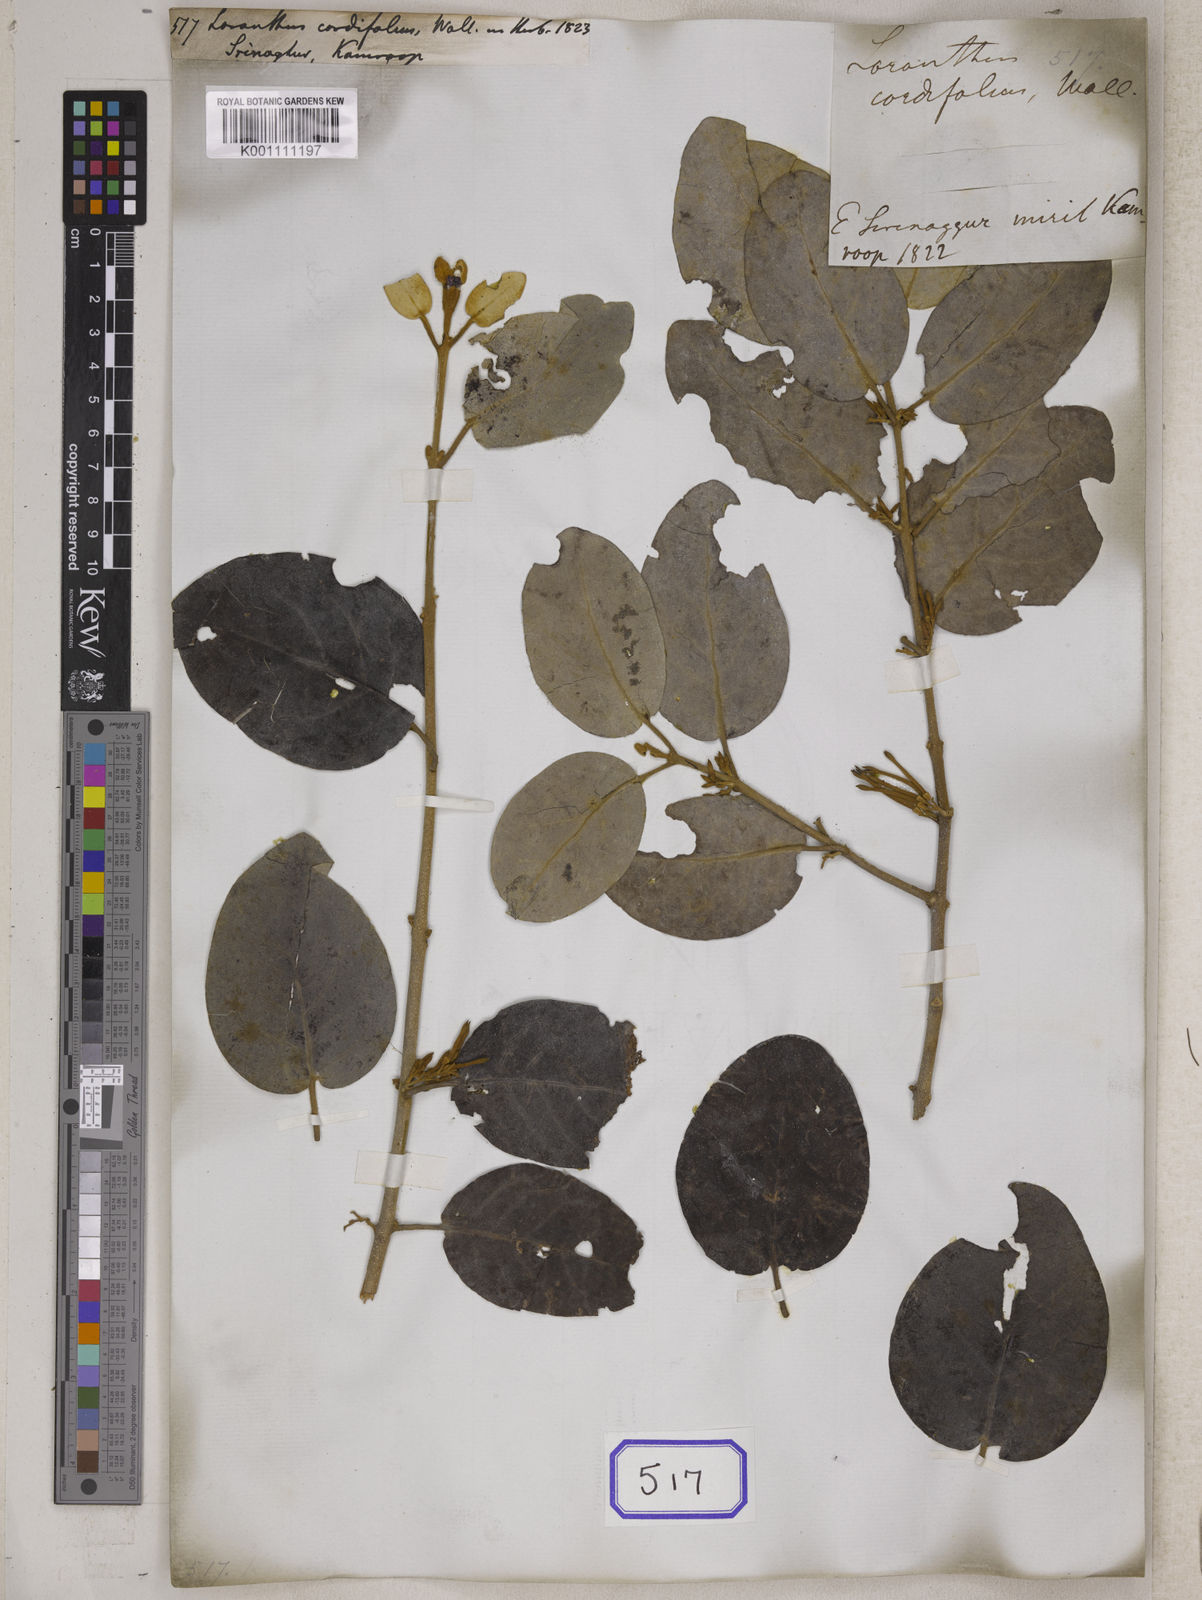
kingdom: Plantae
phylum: Tracheophyta
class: Magnoliopsida
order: Santalales
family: Loranthaceae
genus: Scurrula
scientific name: Scurrula cordifolia
